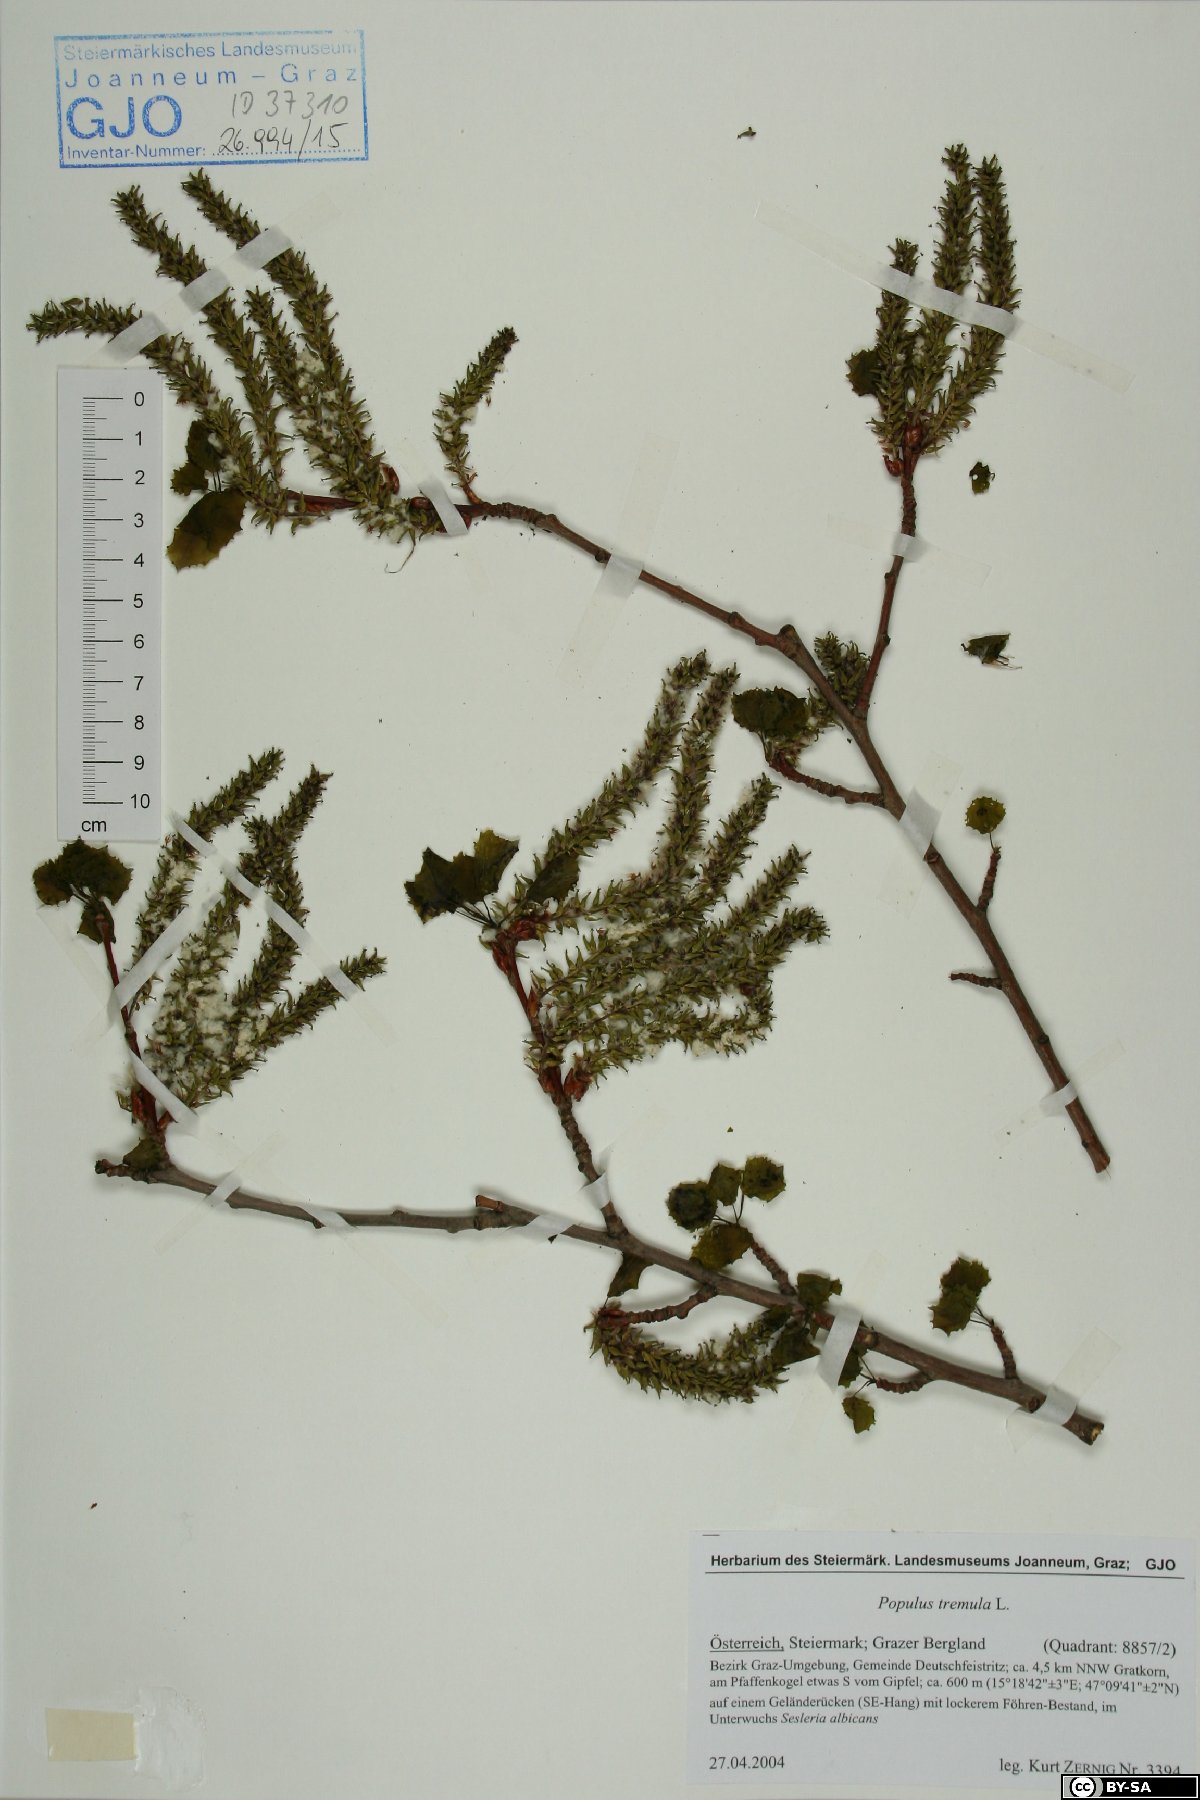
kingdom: Plantae
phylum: Tracheophyta
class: Magnoliopsida
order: Malpighiales
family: Salicaceae
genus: Populus
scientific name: Populus tremula
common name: European aspen
